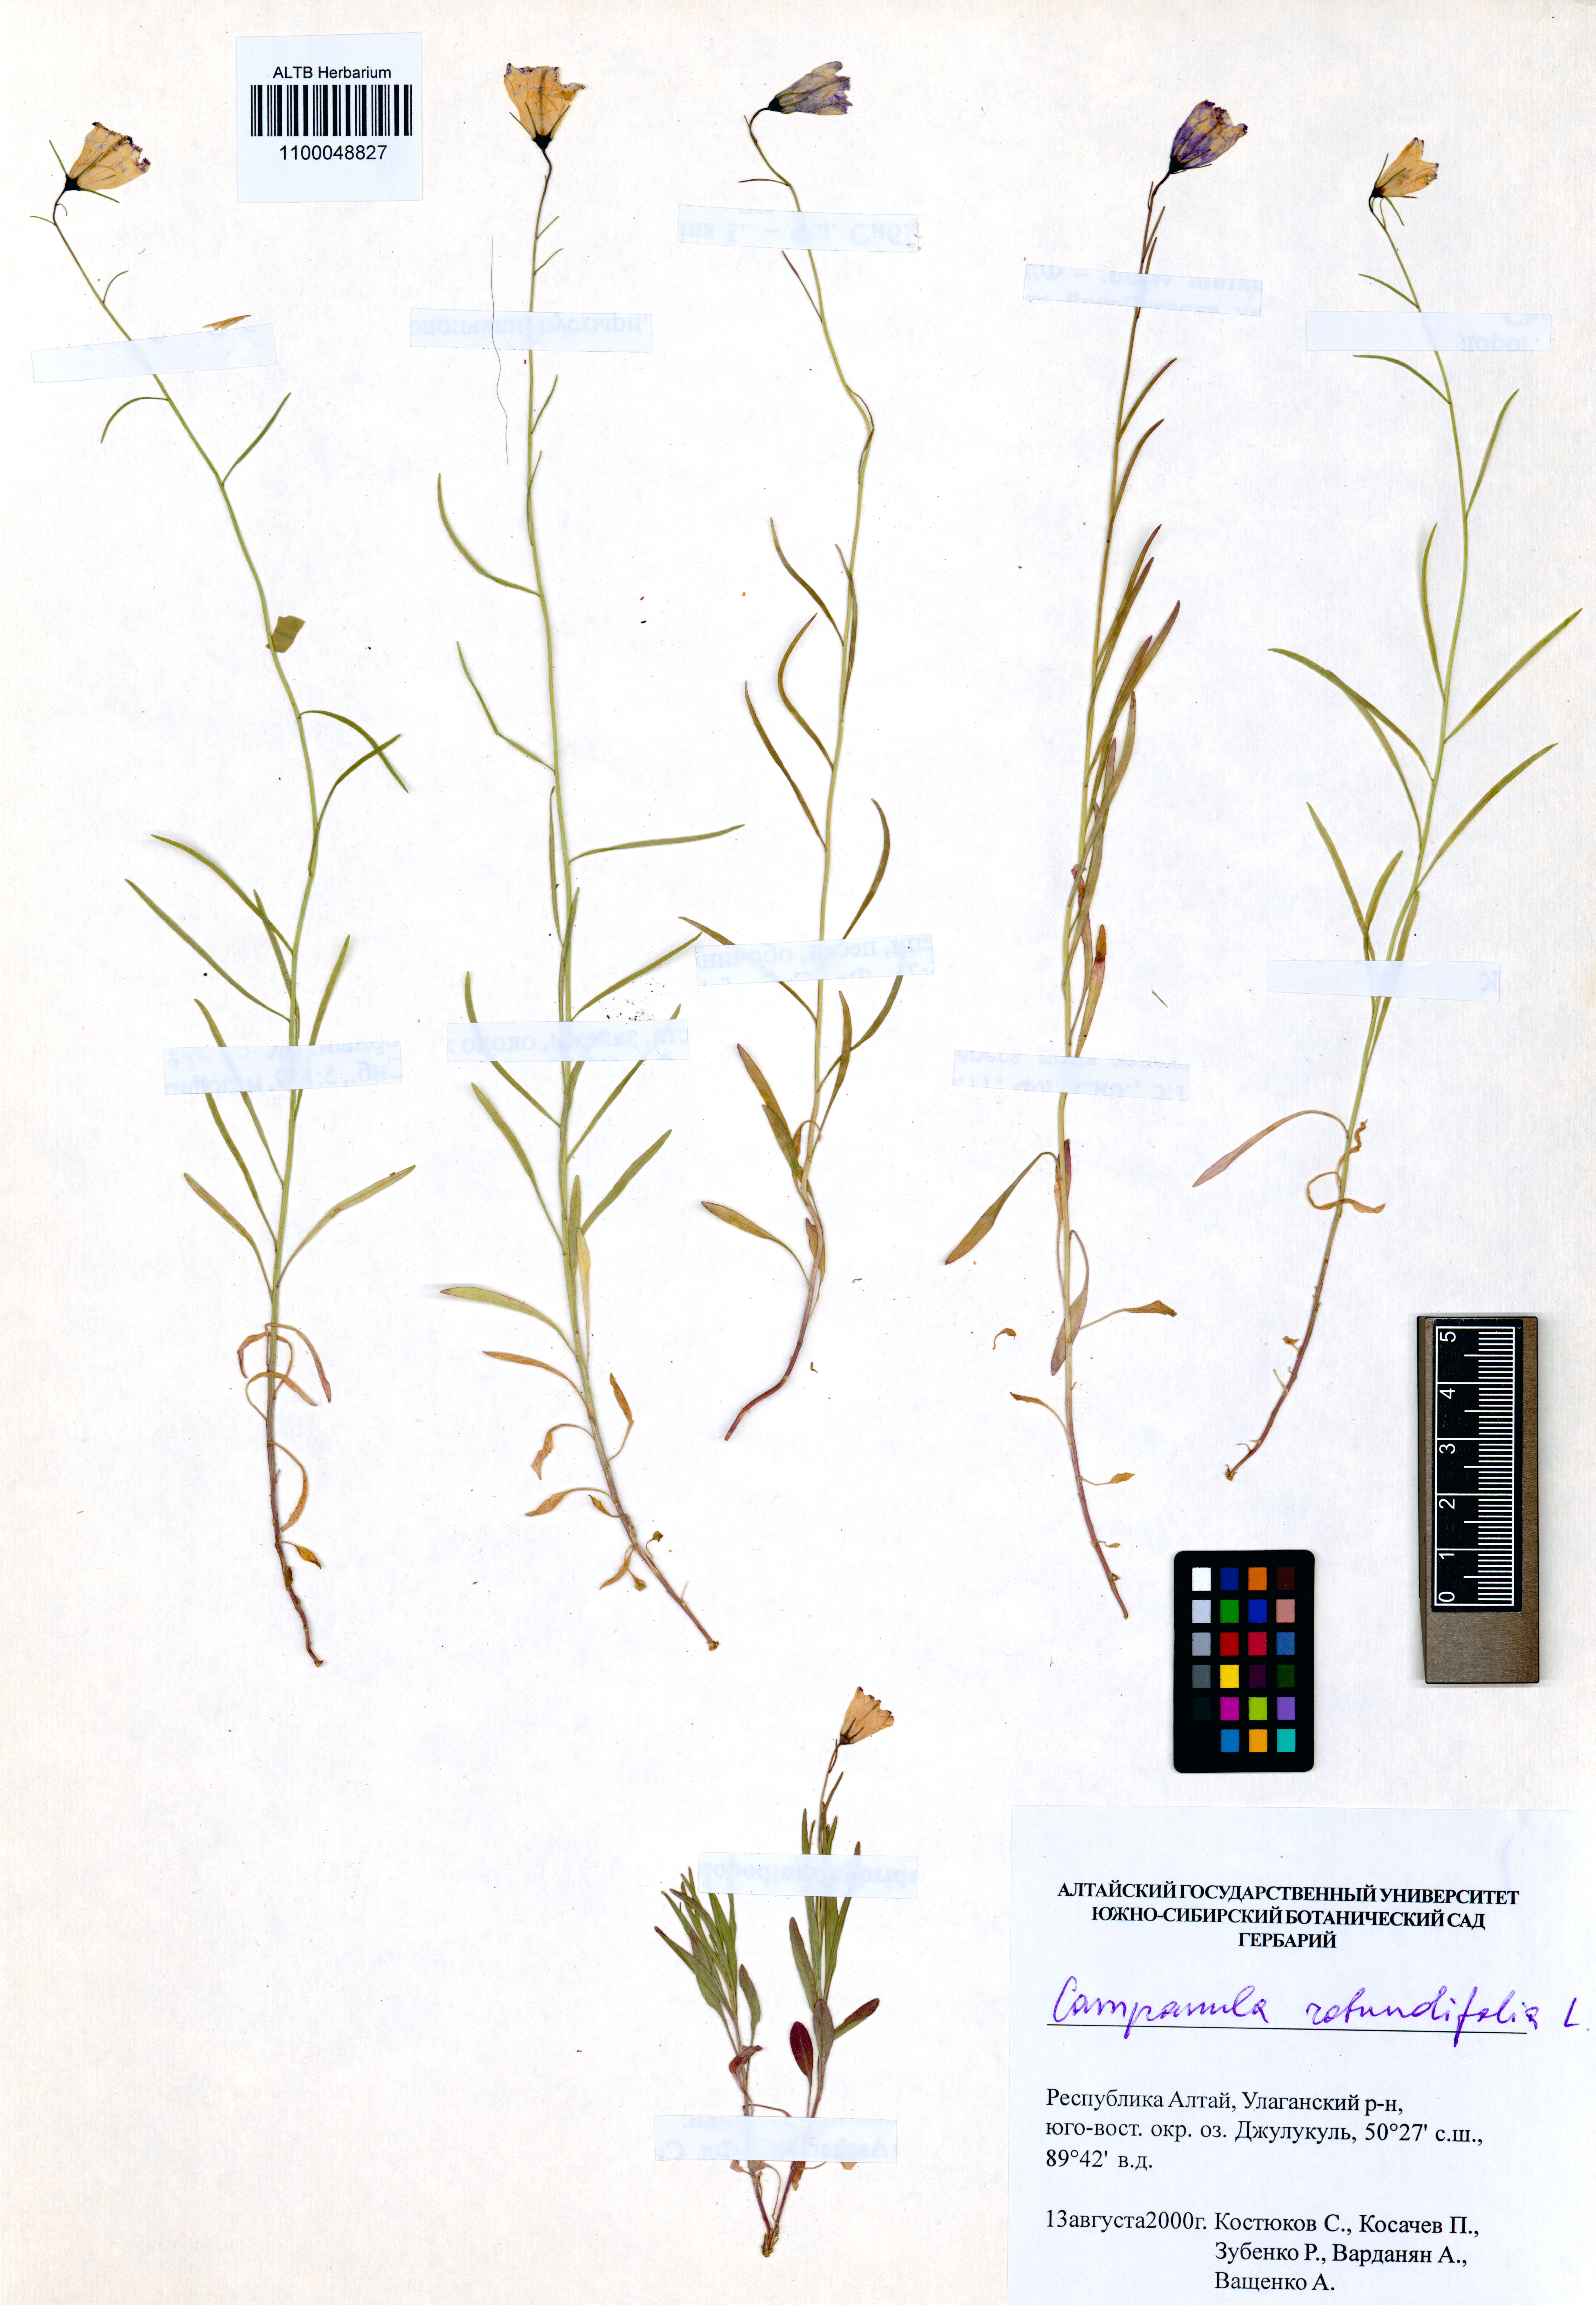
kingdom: Plantae
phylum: Tracheophyta
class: Magnoliopsida
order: Asterales
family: Campanulaceae
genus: Campanula
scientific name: Campanula rotundifolia
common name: Harebell
